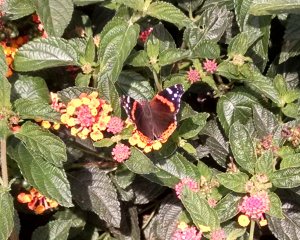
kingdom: Animalia
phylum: Arthropoda
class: Insecta
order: Lepidoptera
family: Nymphalidae
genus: Vanessa
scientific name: Vanessa atalanta
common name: Red Admiral
